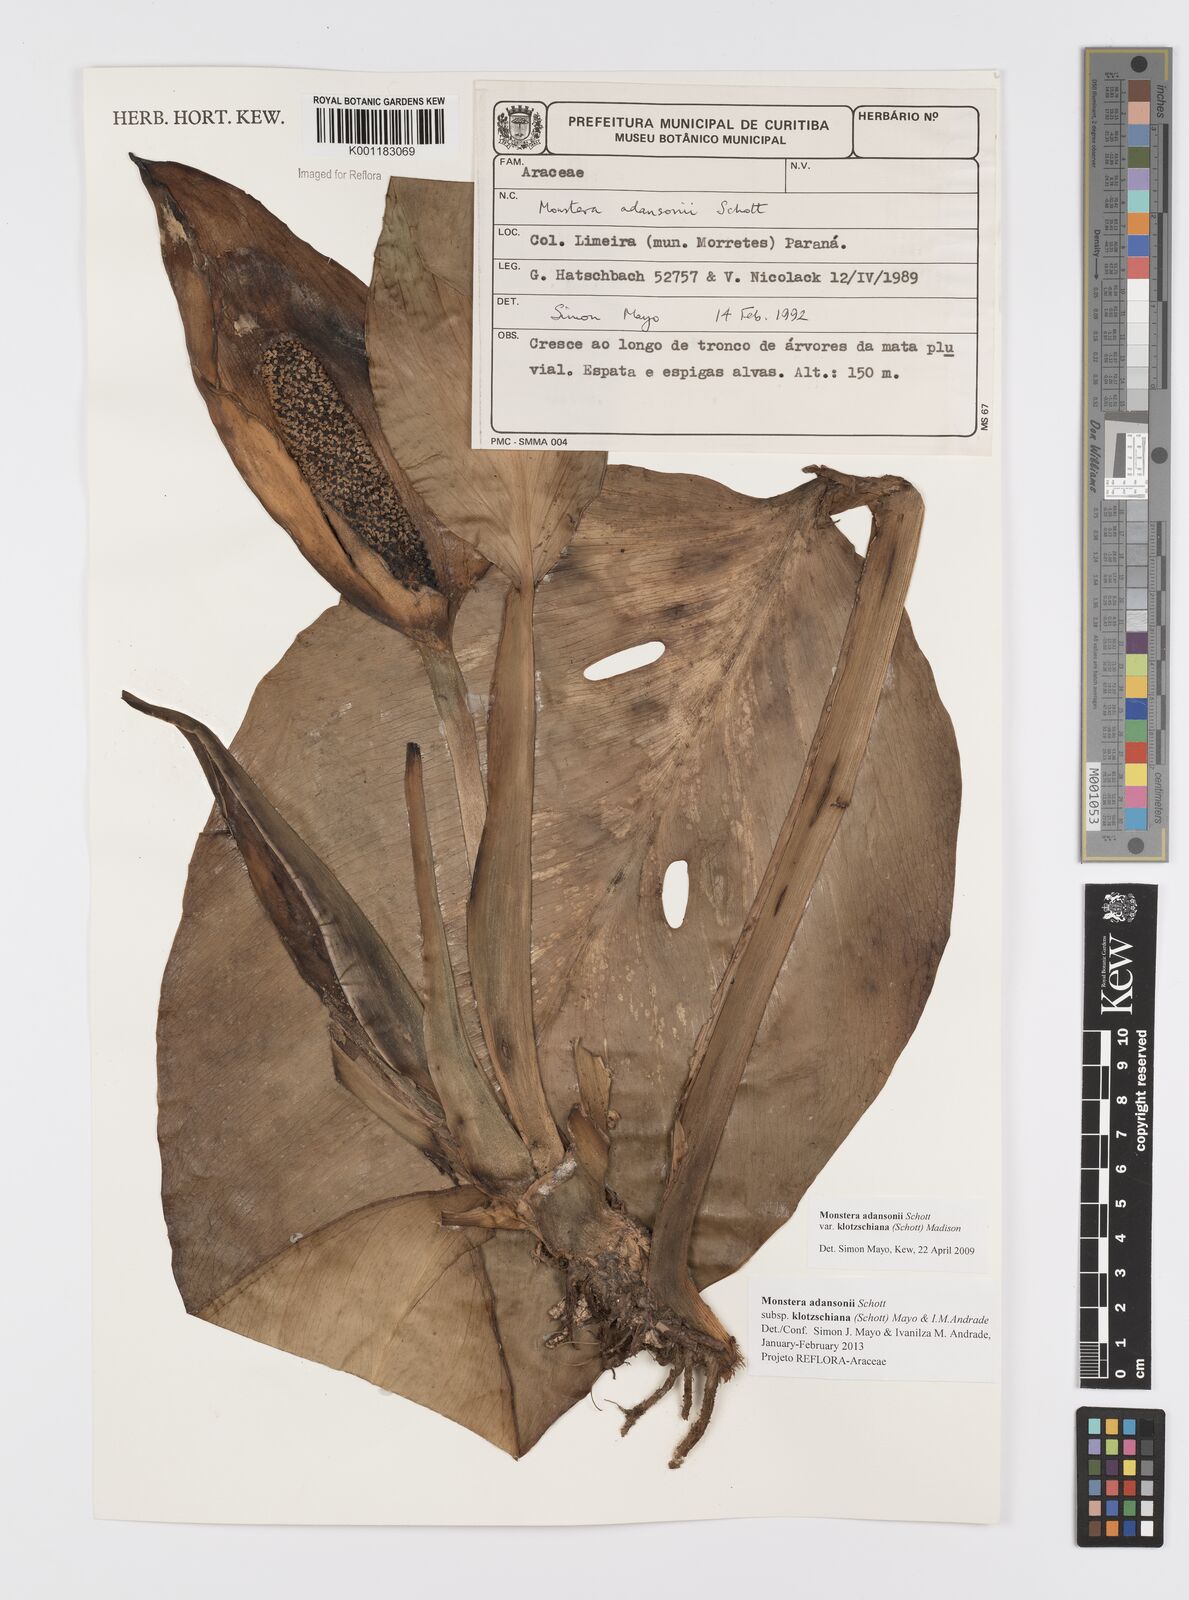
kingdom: Plantae
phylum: Tracheophyta
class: Liliopsida
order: Alismatales
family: Araceae
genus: Monstera
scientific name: Monstera adansonii
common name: Tarovine
